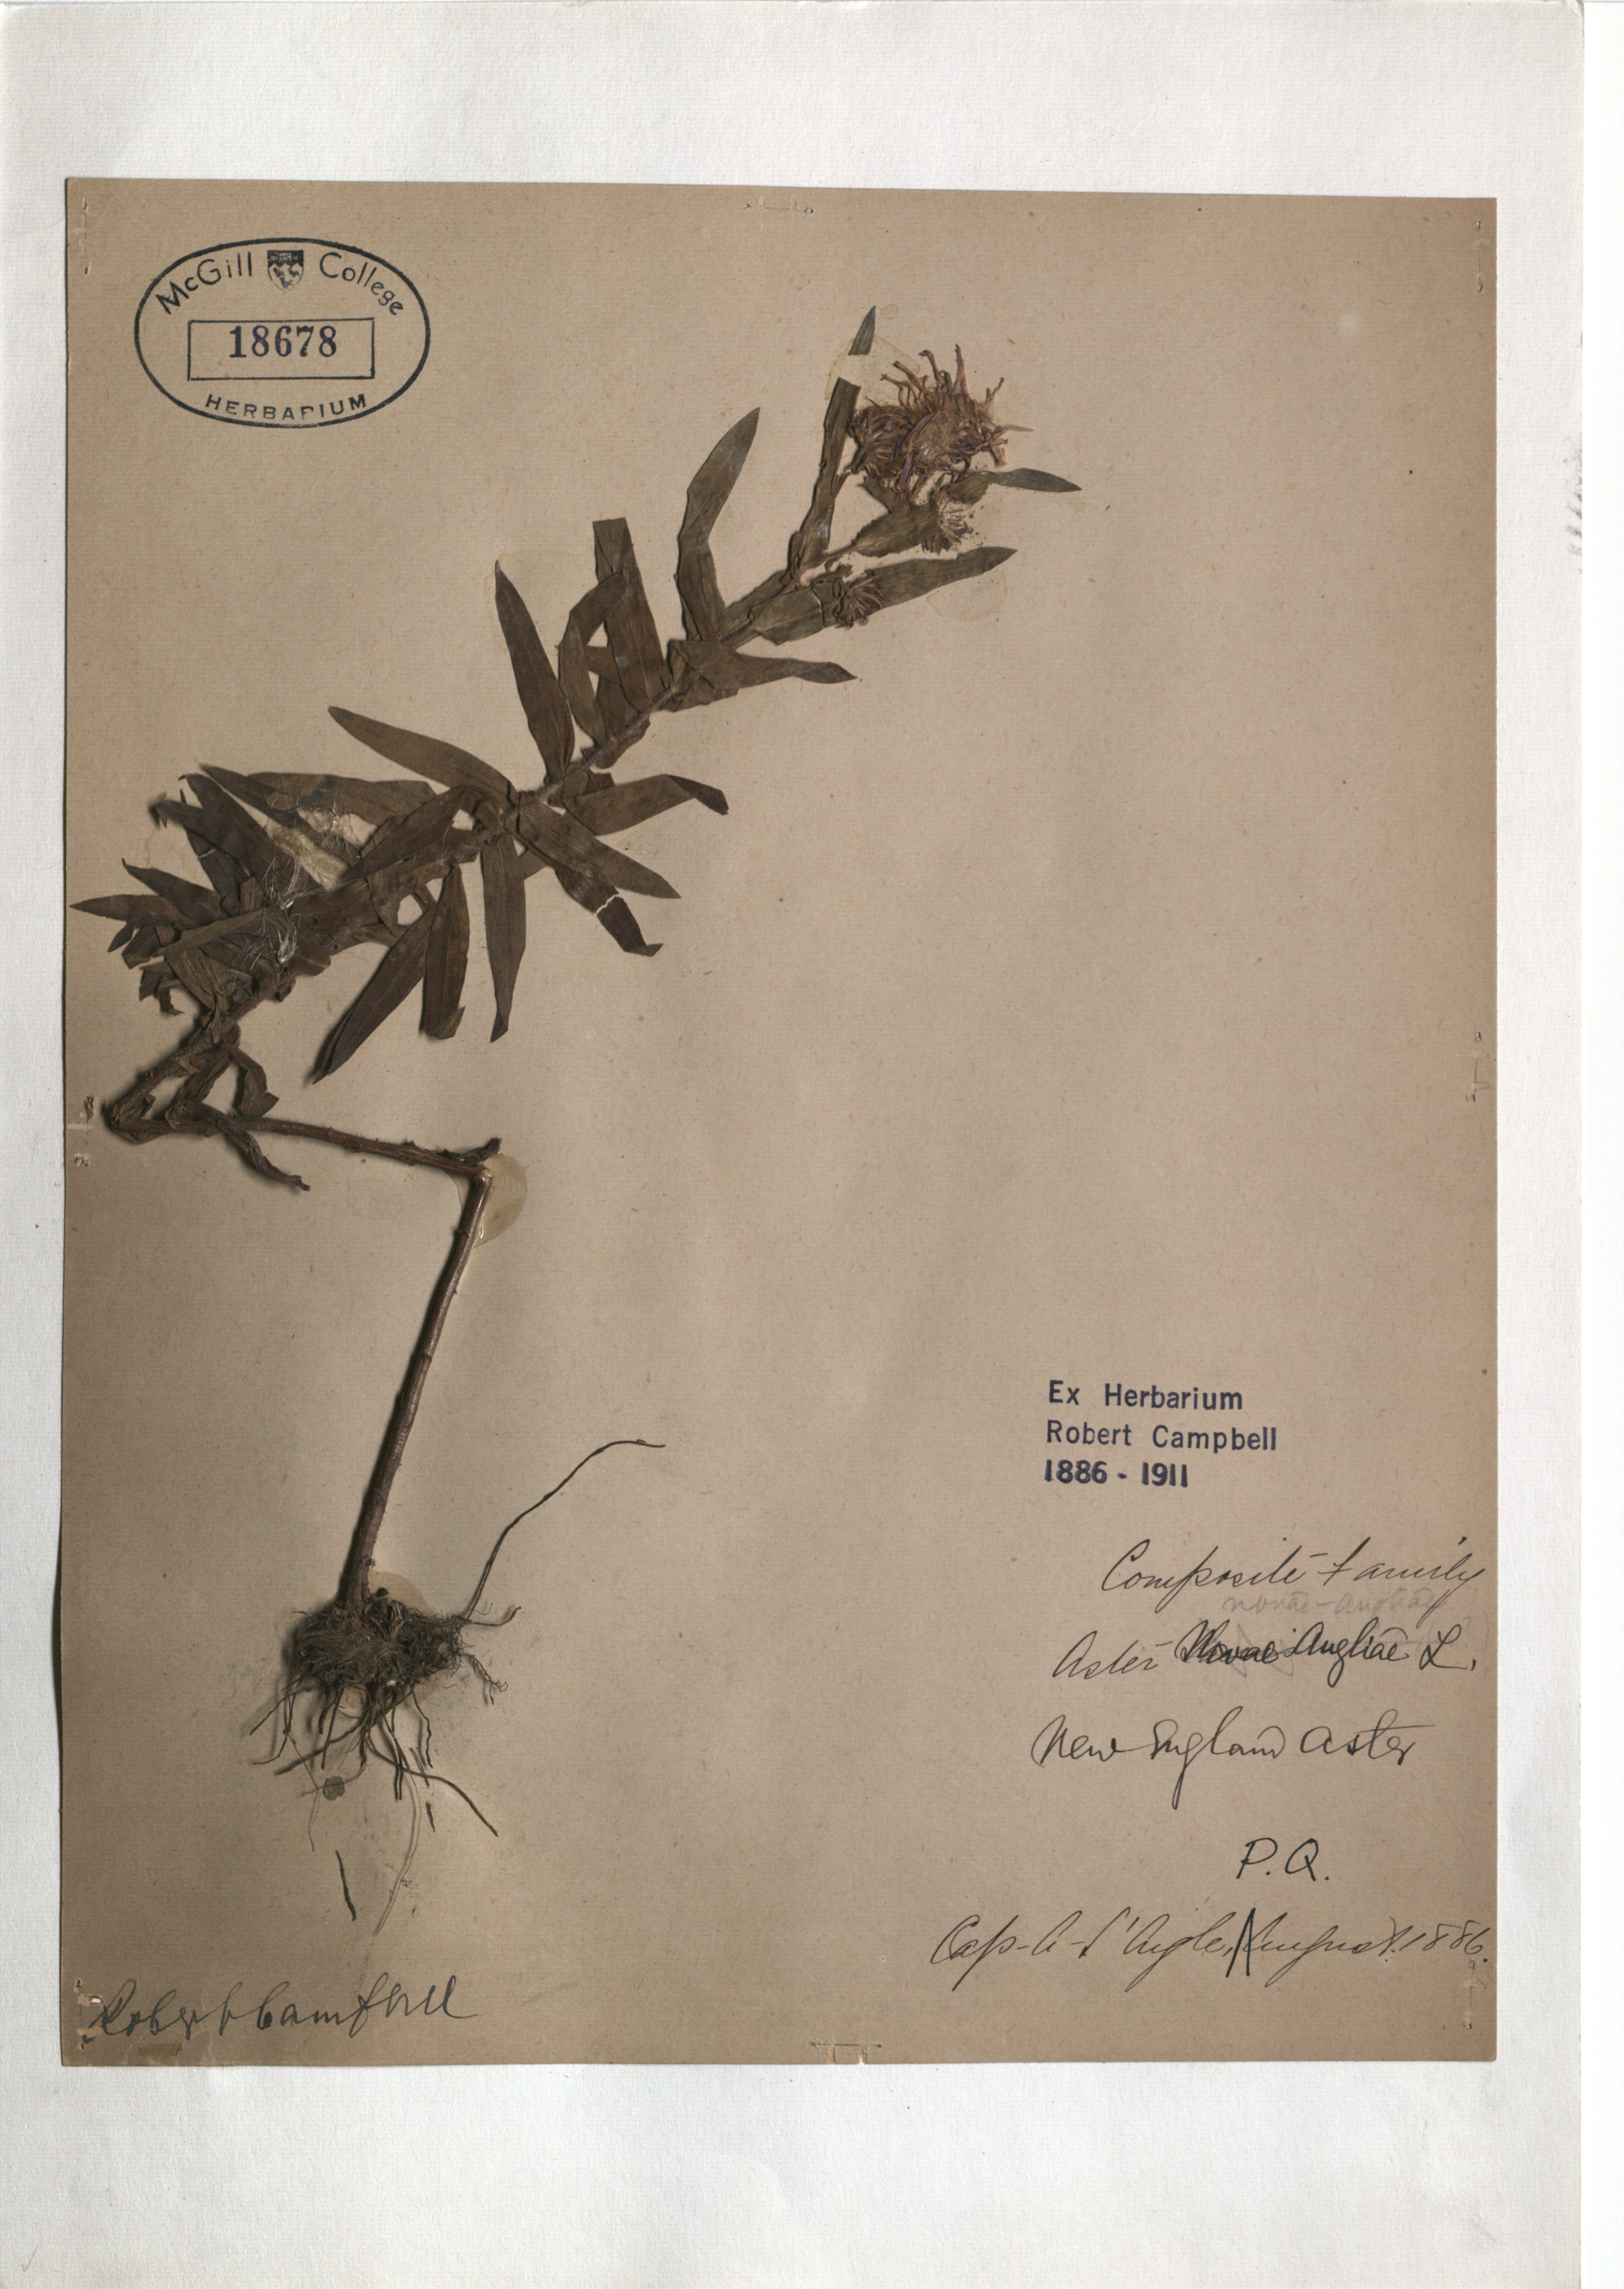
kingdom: Plantae
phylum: Tracheophyta
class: Magnoliopsida
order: Asterales
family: Asteraceae
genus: Symphyotrichum
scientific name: Symphyotrichum novae-angliae
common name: Michaelmas daisy
